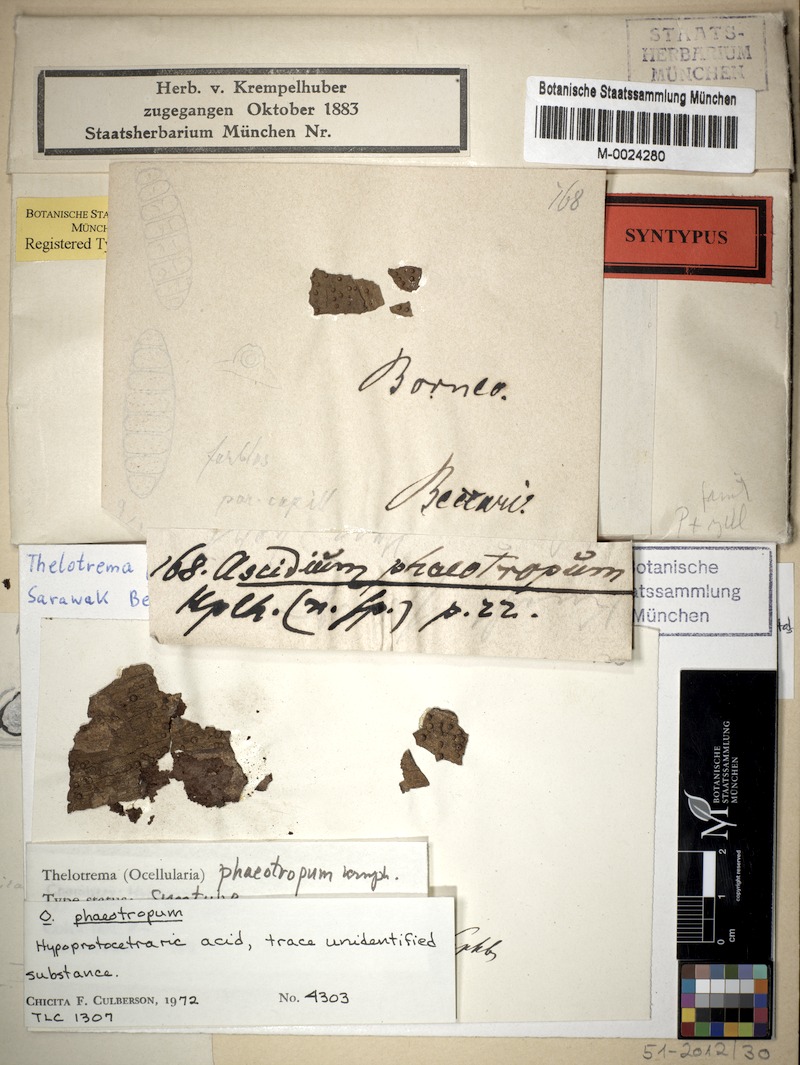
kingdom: Fungi
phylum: Ascomycota
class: Lecanoromycetes
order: Ostropales
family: Graphidaceae
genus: Ocellularia
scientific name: Ocellularia phaeotropa
